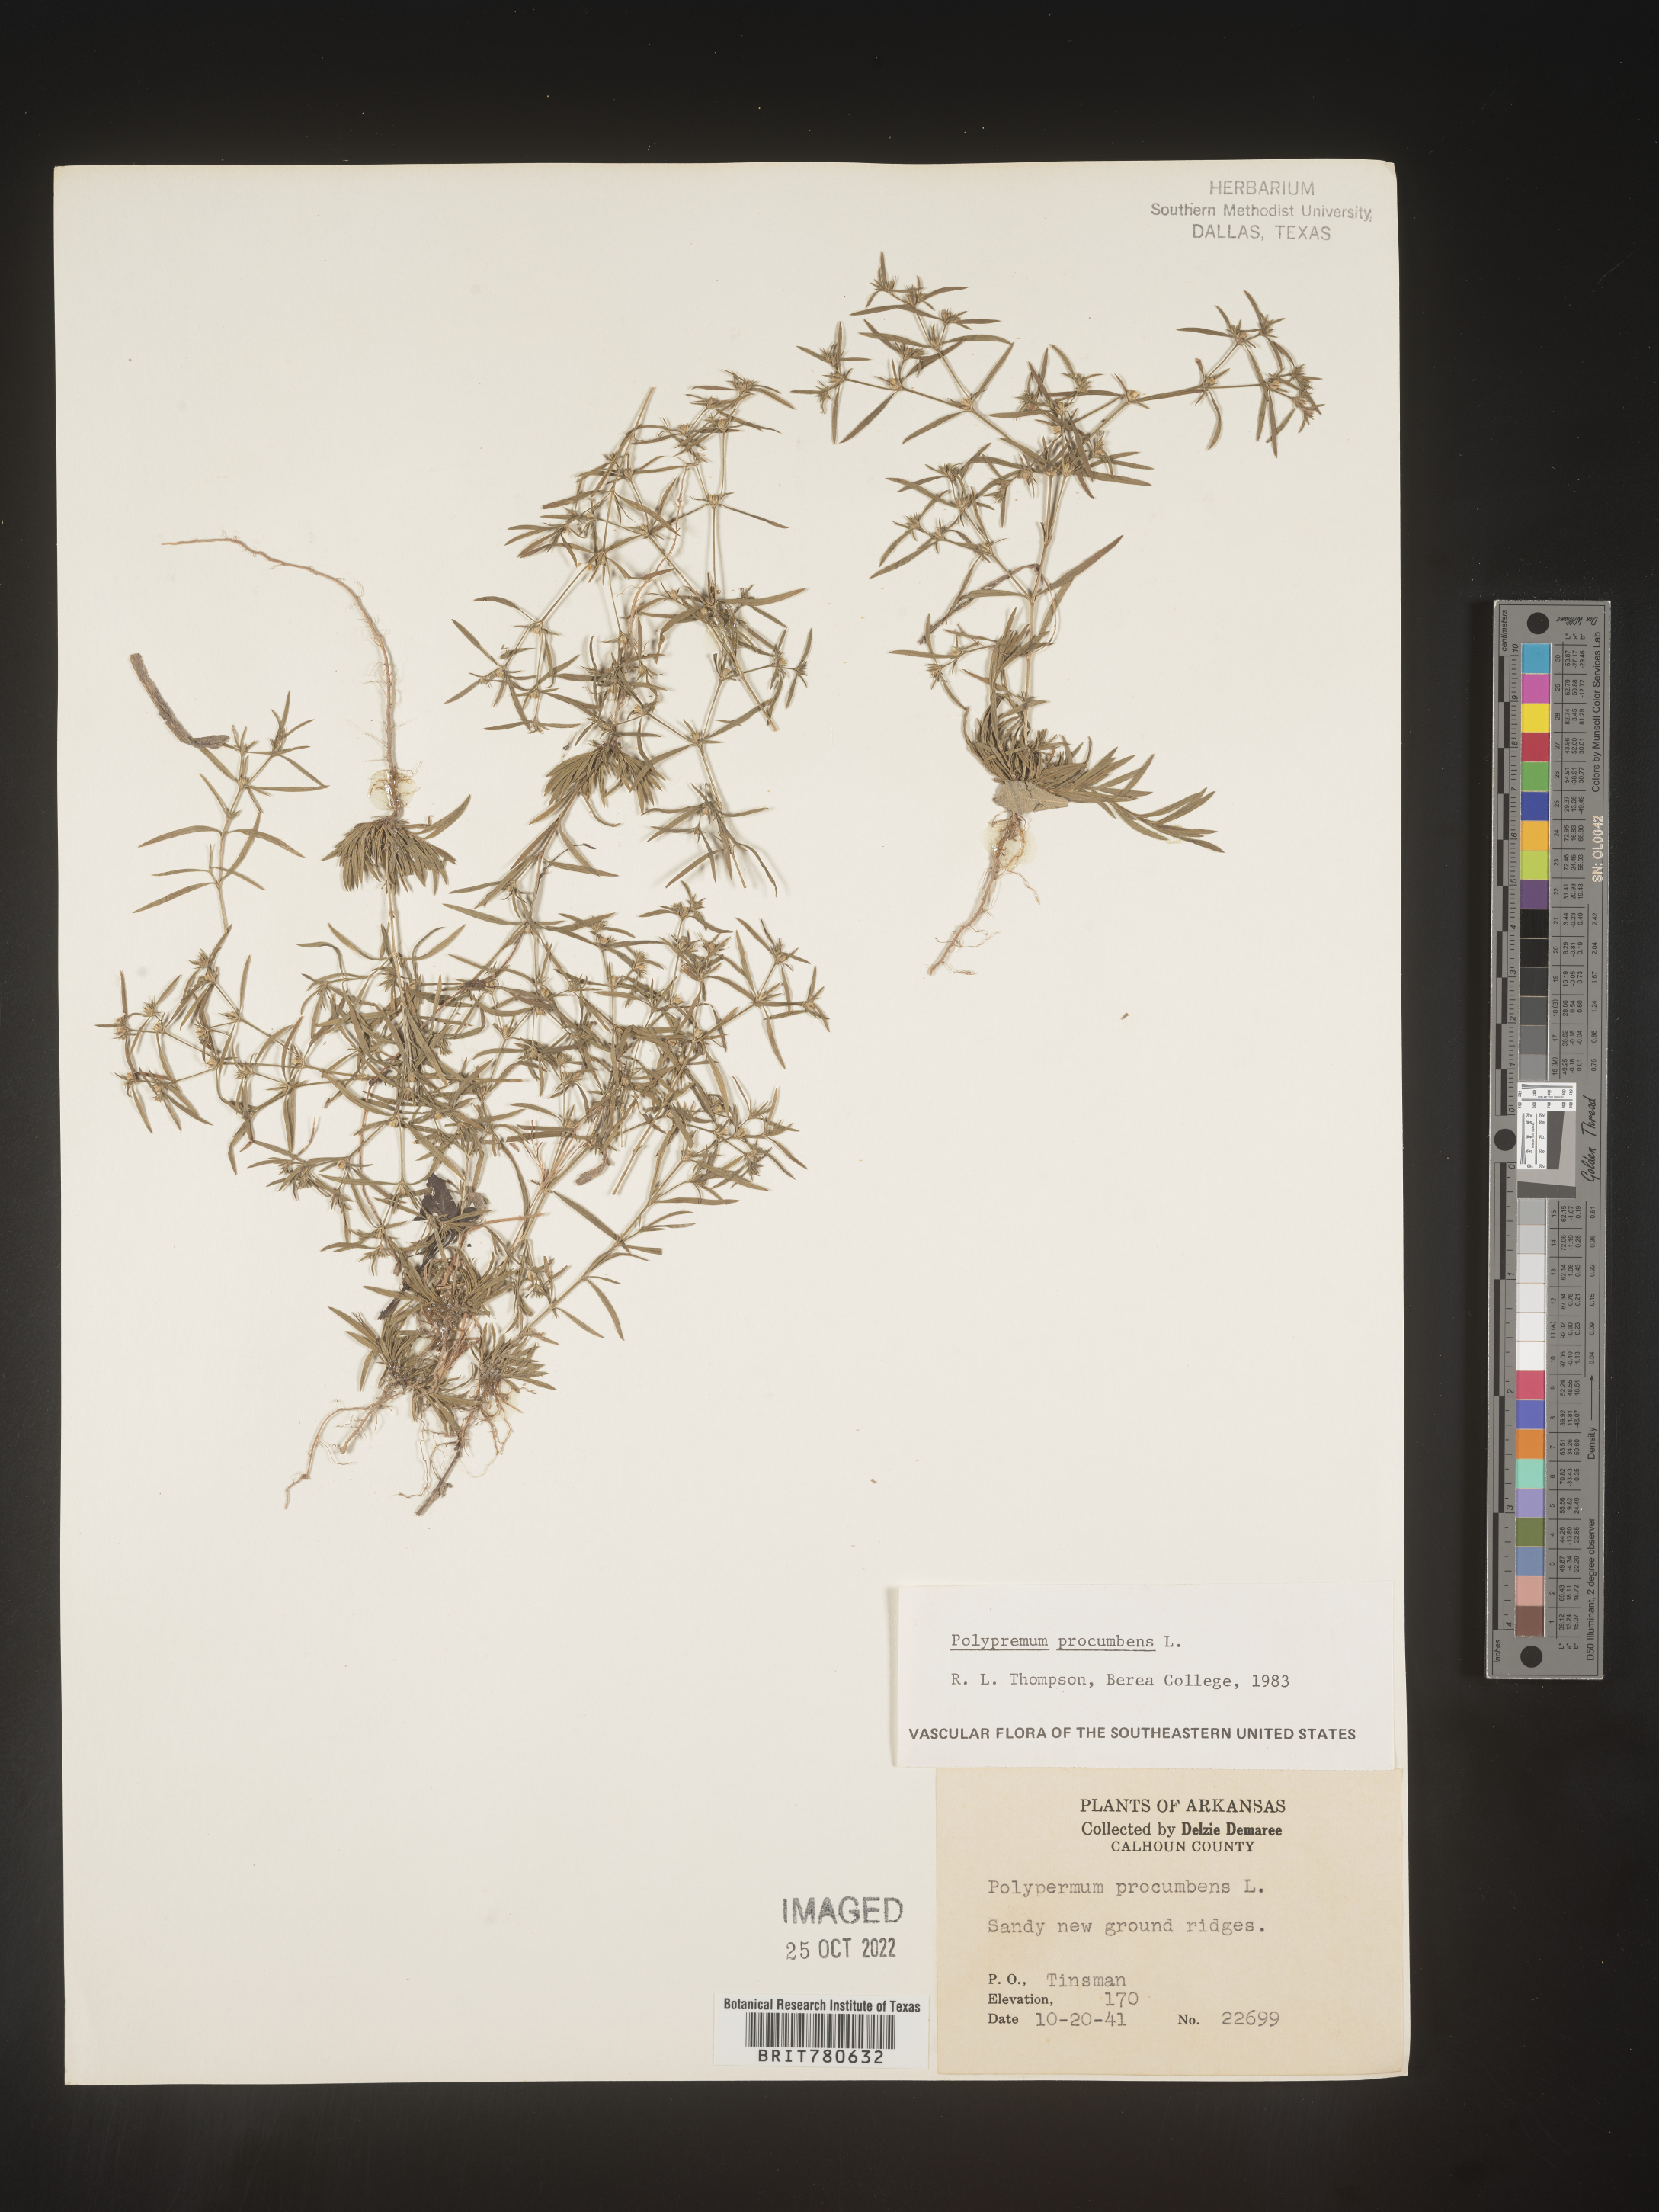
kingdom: Plantae
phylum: Tracheophyta
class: Magnoliopsida
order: Lamiales
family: Tetrachondraceae
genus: Polypremum
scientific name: Polypremum procumbens
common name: Juniper-leaf
